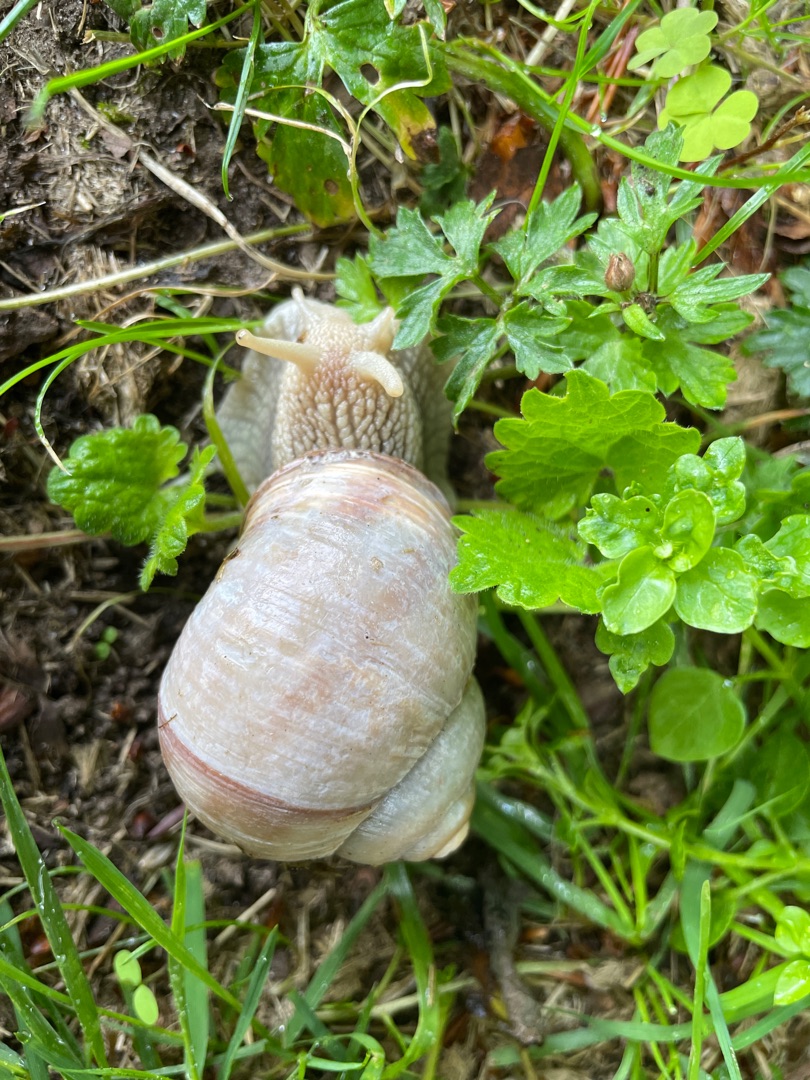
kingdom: Animalia
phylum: Mollusca
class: Gastropoda
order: Stylommatophora
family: Helicidae
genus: Helix
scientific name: Helix pomatia
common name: Vinbjergsnegl
